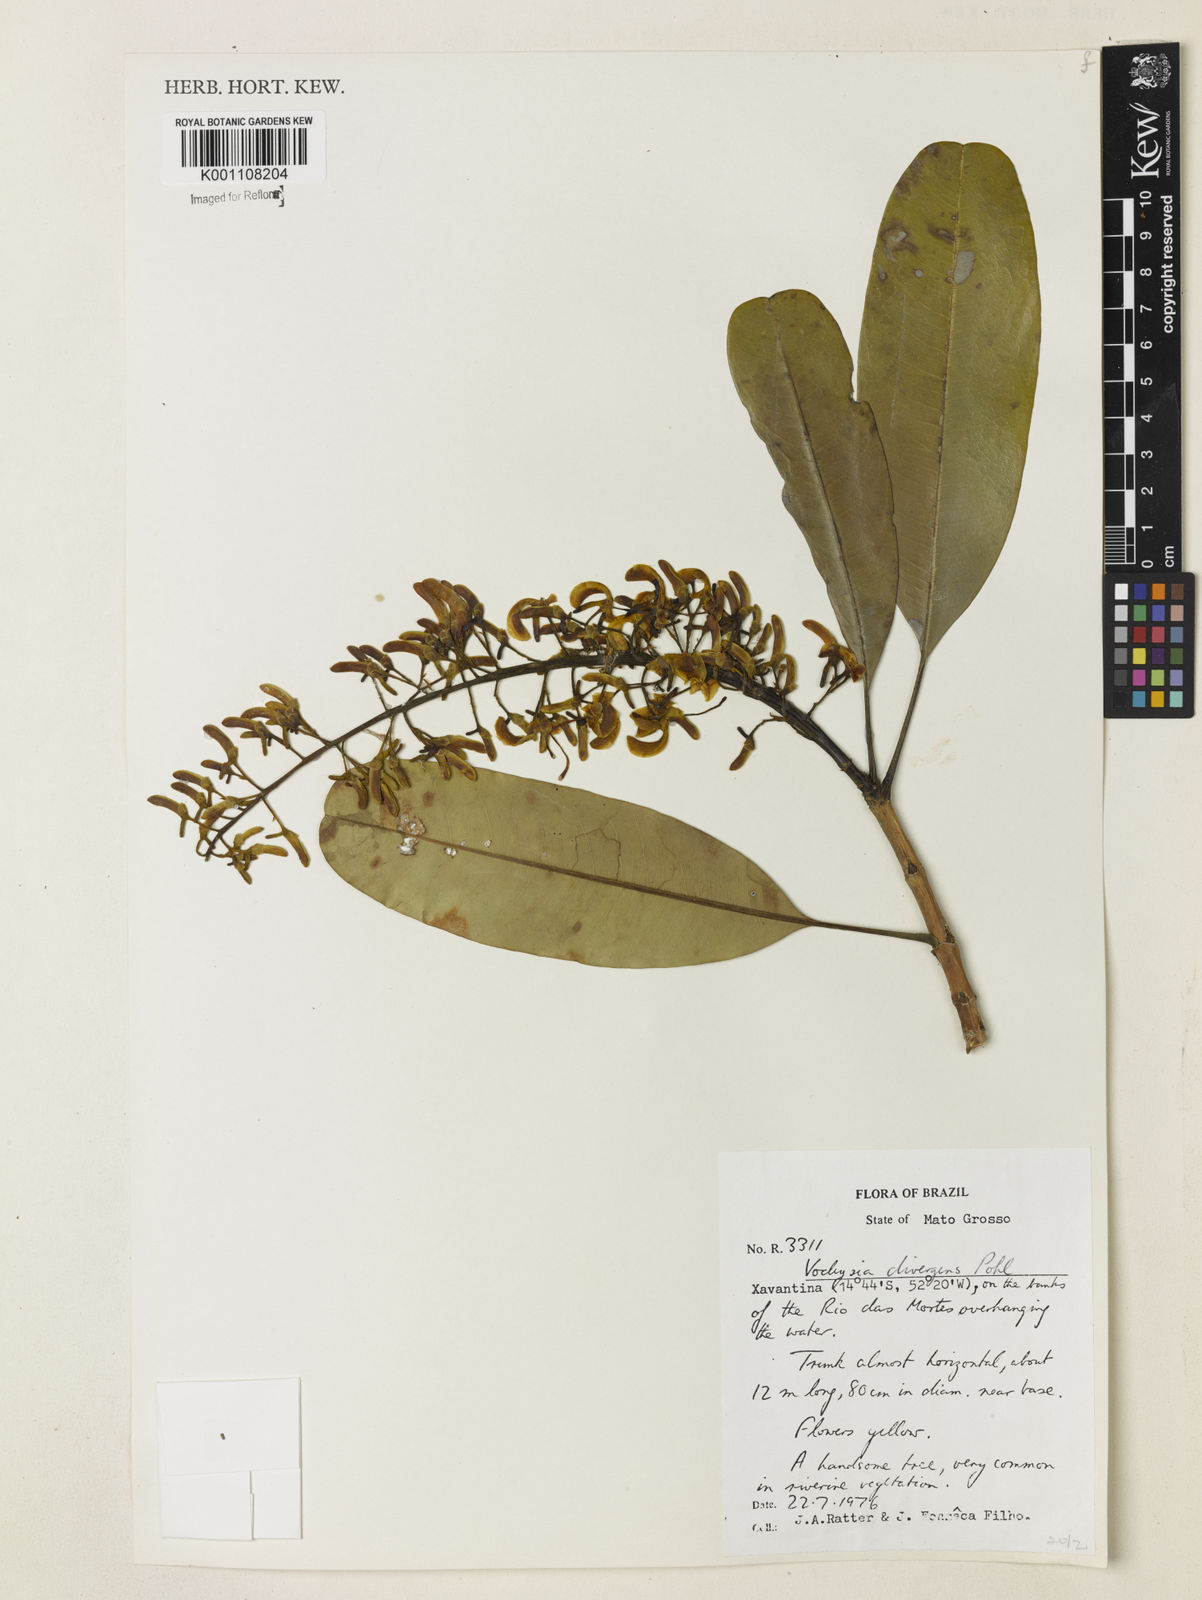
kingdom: Plantae
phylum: Tracheophyta
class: Magnoliopsida
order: Myrtales
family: Vochysiaceae
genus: Vochysia
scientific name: Vochysia divergens
